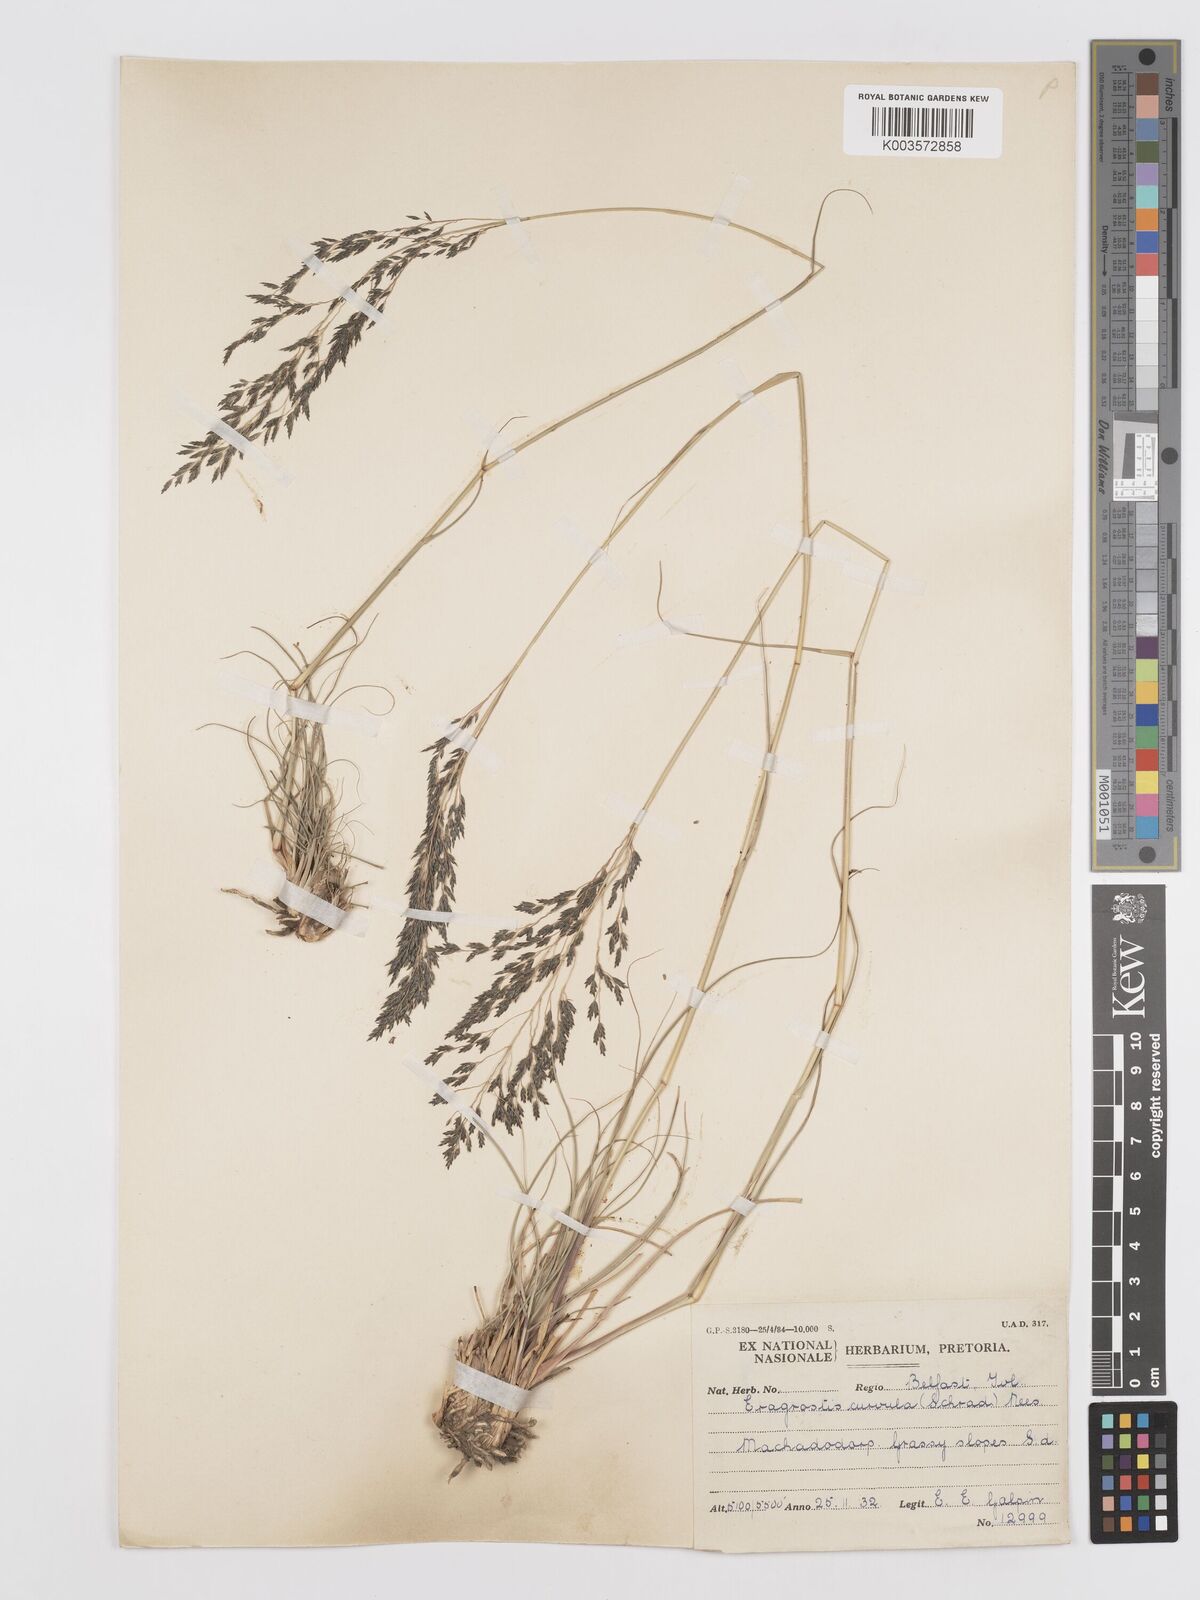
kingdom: Plantae
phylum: Tracheophyta
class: Liliopsida
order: Poales
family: Poaceae
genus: Eragrostis
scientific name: Eragrostis curvula
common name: African love-grass
